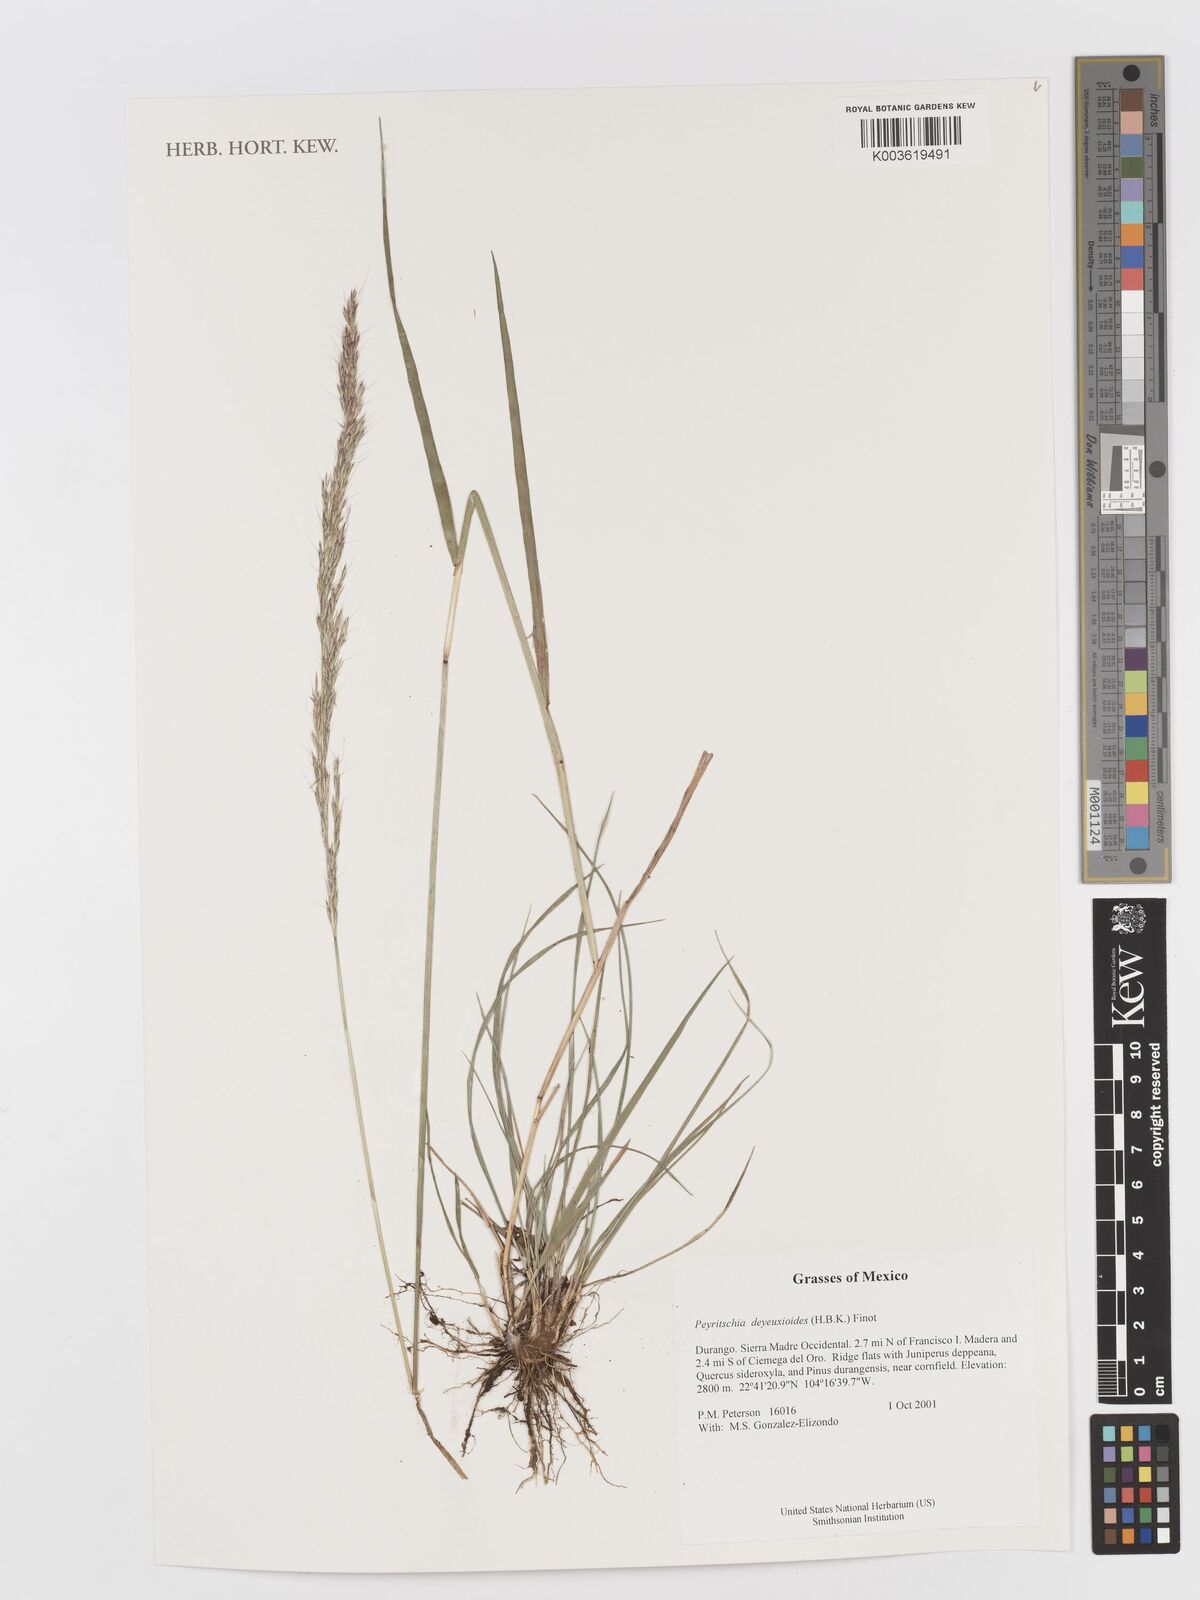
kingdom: Plantae
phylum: Tracheophyta
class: Liliopsida
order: Poales
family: Poaceae
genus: Peyritschia
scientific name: Peyritschia deyeuxioides
